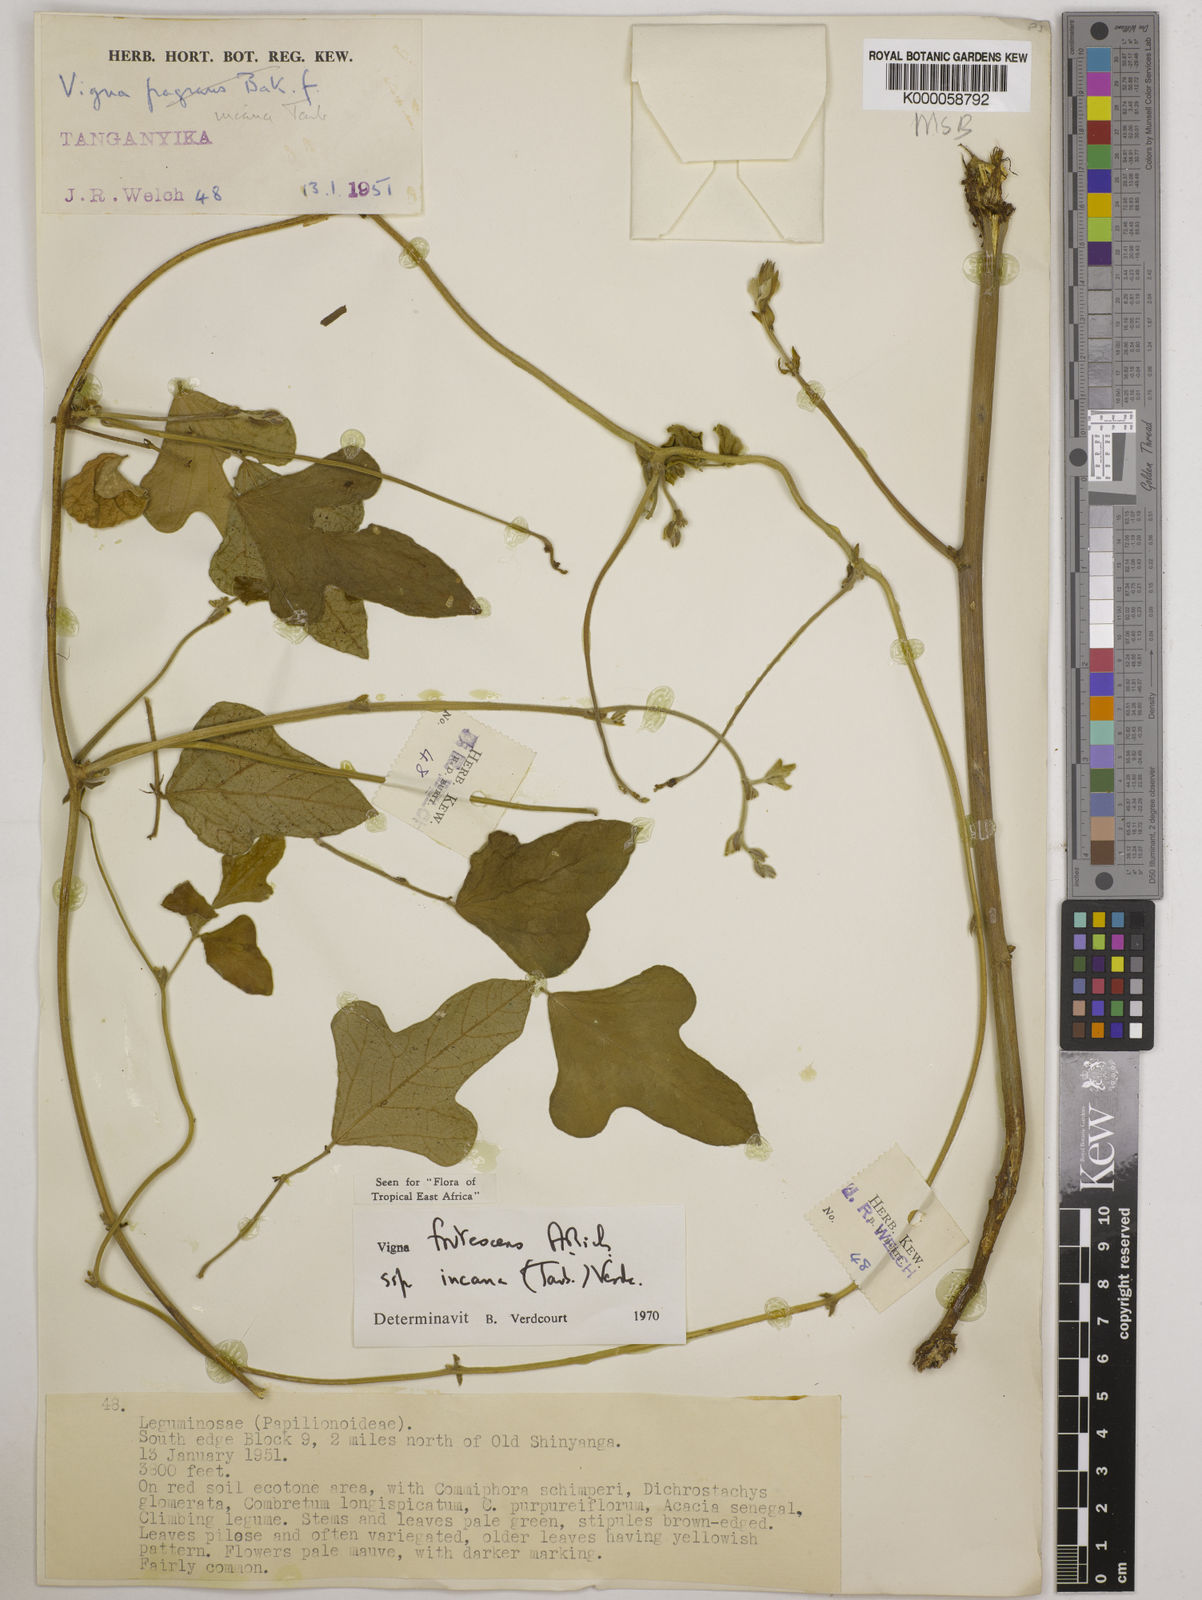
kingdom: Plantae
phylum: Tracheophyta
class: Magnoliopsida
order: Fabales
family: Fabaceae
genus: Vigna
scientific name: Vigna
